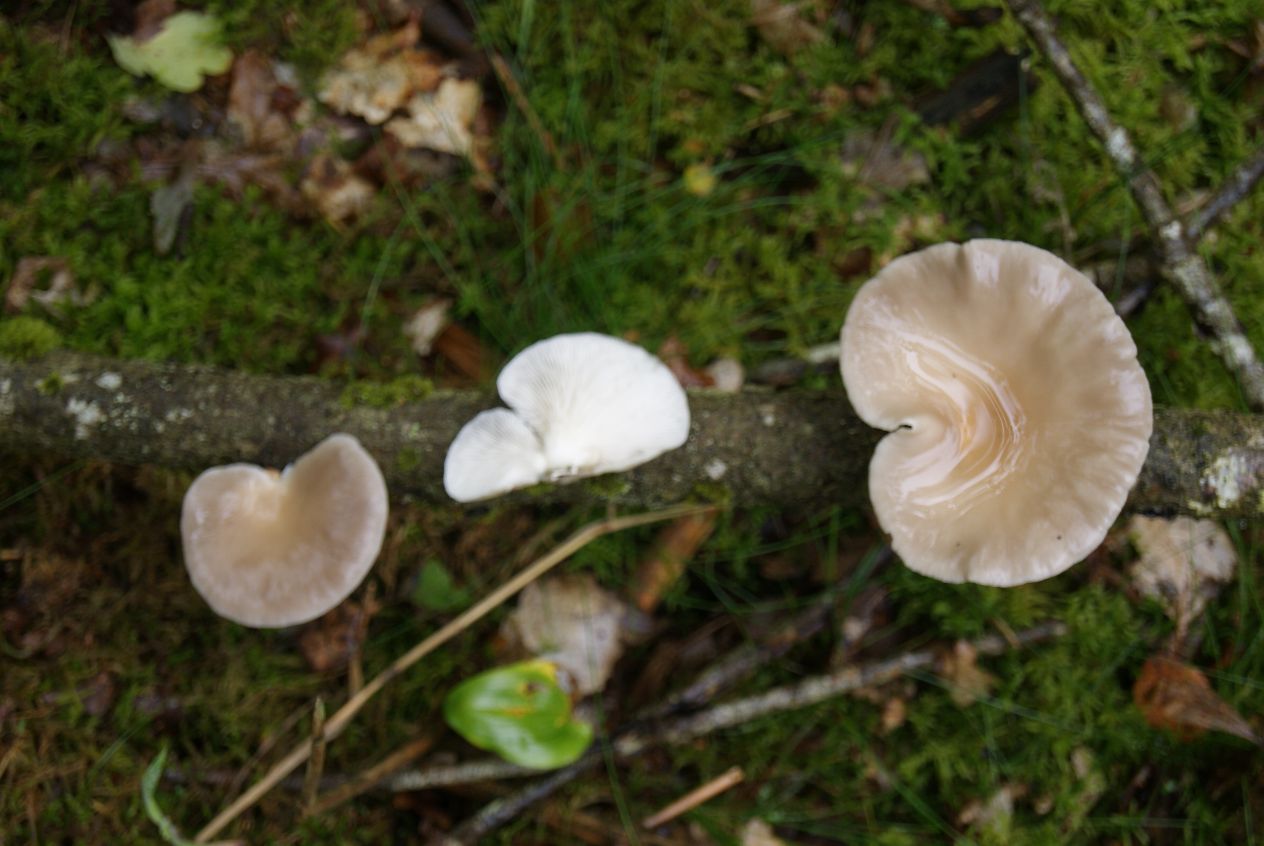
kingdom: Fungi
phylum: Basidiomycota
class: Agaricomycetes
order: Agaricales
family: Pleurotaceae
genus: Pleurotus
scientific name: Pleurotus pulmonarius
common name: sommer-østershat
